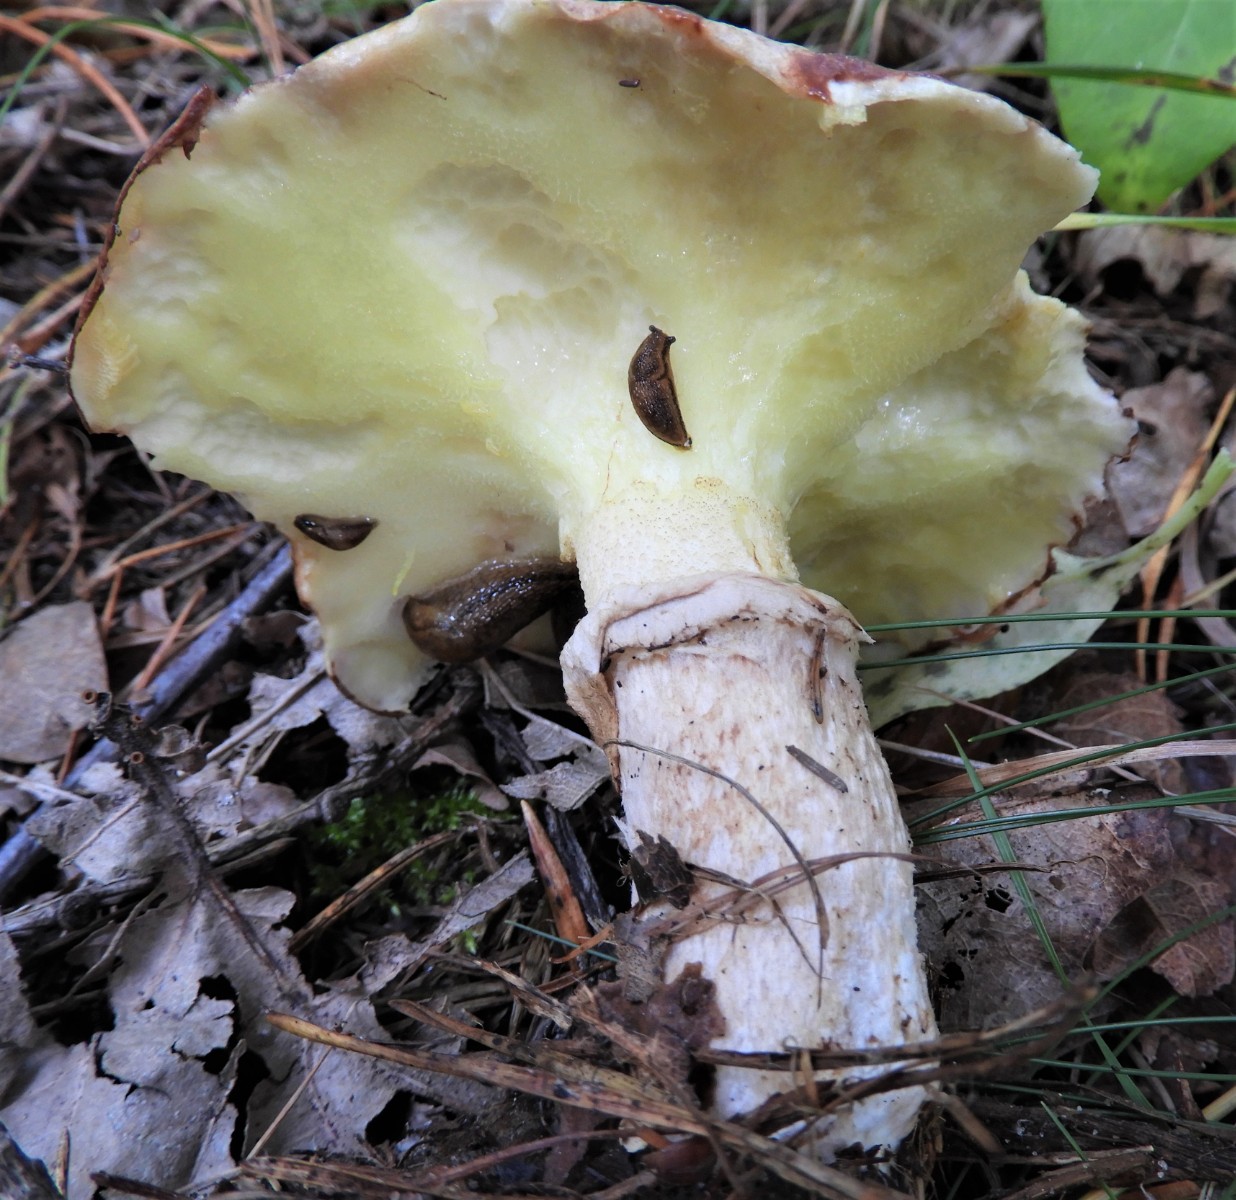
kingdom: Fungi
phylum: Basidiomycota
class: Agaricomycetes
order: Boletales
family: Suillaceae
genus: Suillus
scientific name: Suillus luteus
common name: brungul slimrørhat
